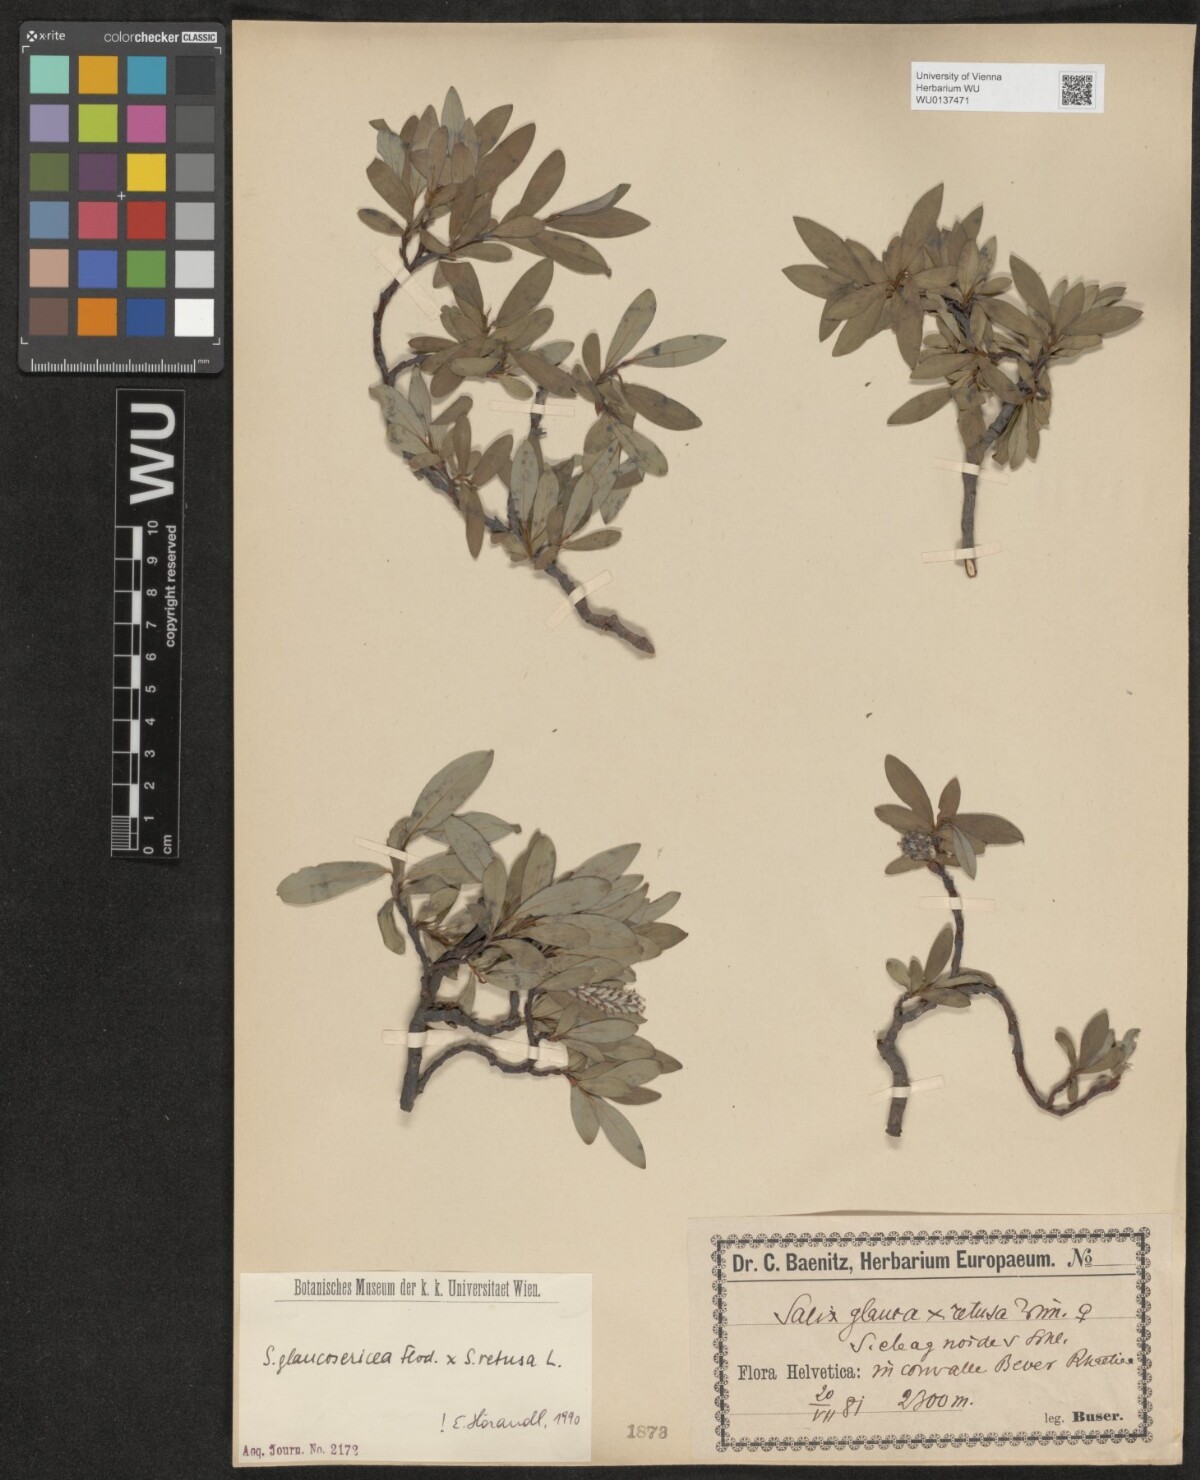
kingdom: Plantae
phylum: Tracheophyta
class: Magnoliopsida
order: Malpighiales
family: Salicaceae
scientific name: Salicaceae
